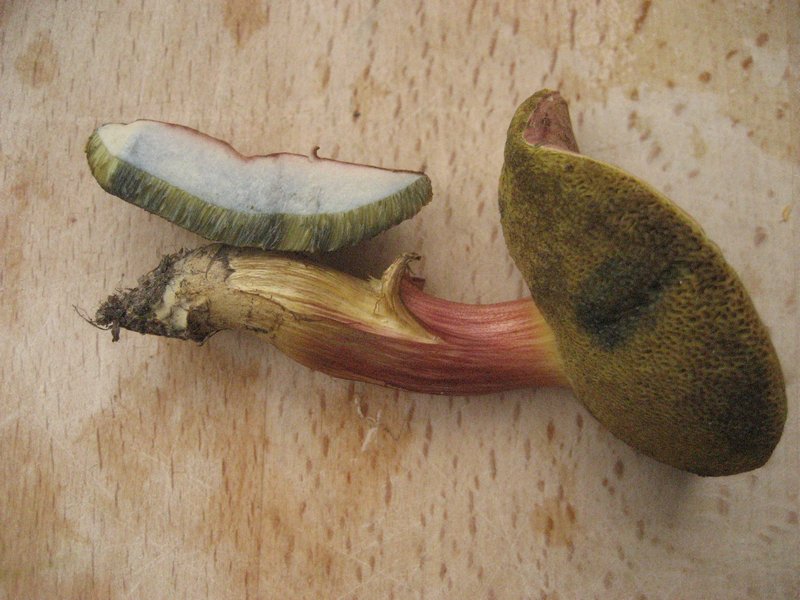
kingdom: Fungi
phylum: Basidiomycota
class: Agaricomycetes
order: Boletales
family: Boletaceae
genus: Hortiboletus
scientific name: Hortiboletus bubalinus
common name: aurora-rørhat
